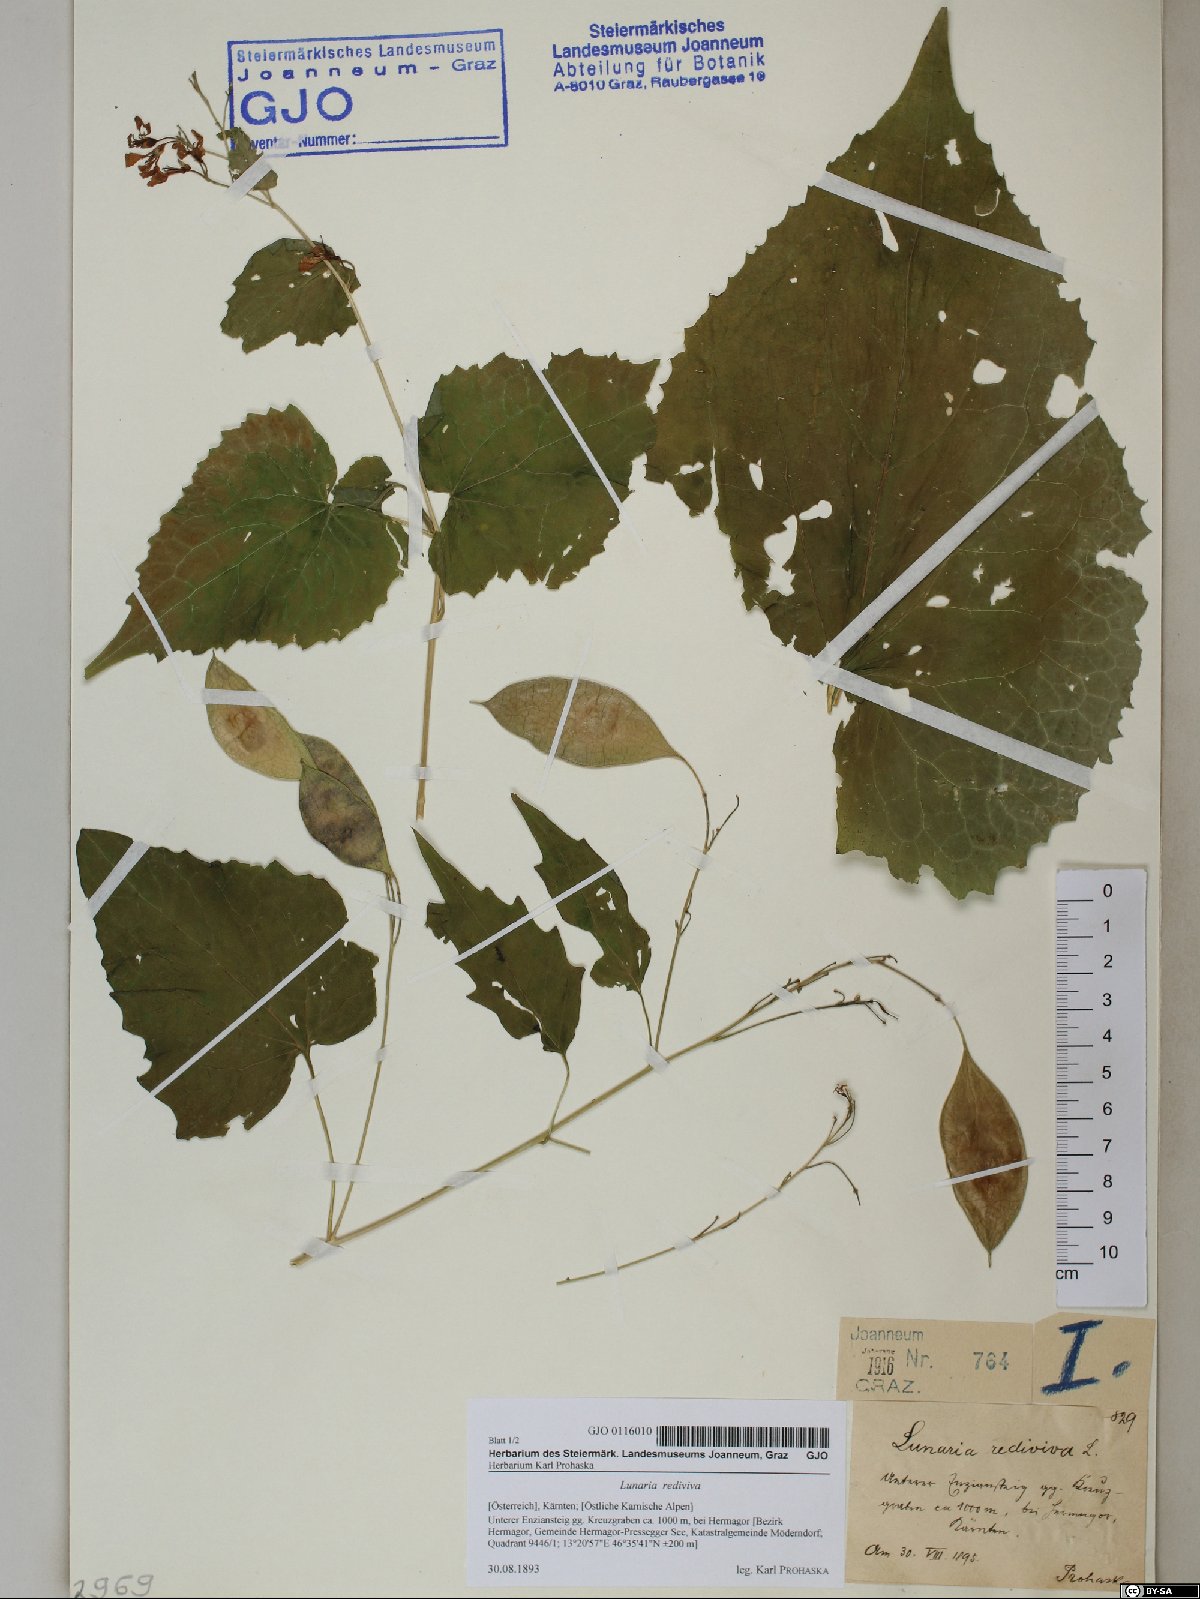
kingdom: Plantae
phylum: Tracheophyta
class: Magnoliopsida
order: Brassicales
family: Brassicaceae
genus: Lunaria
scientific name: Lunaria rediviva
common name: Perennial honesty
